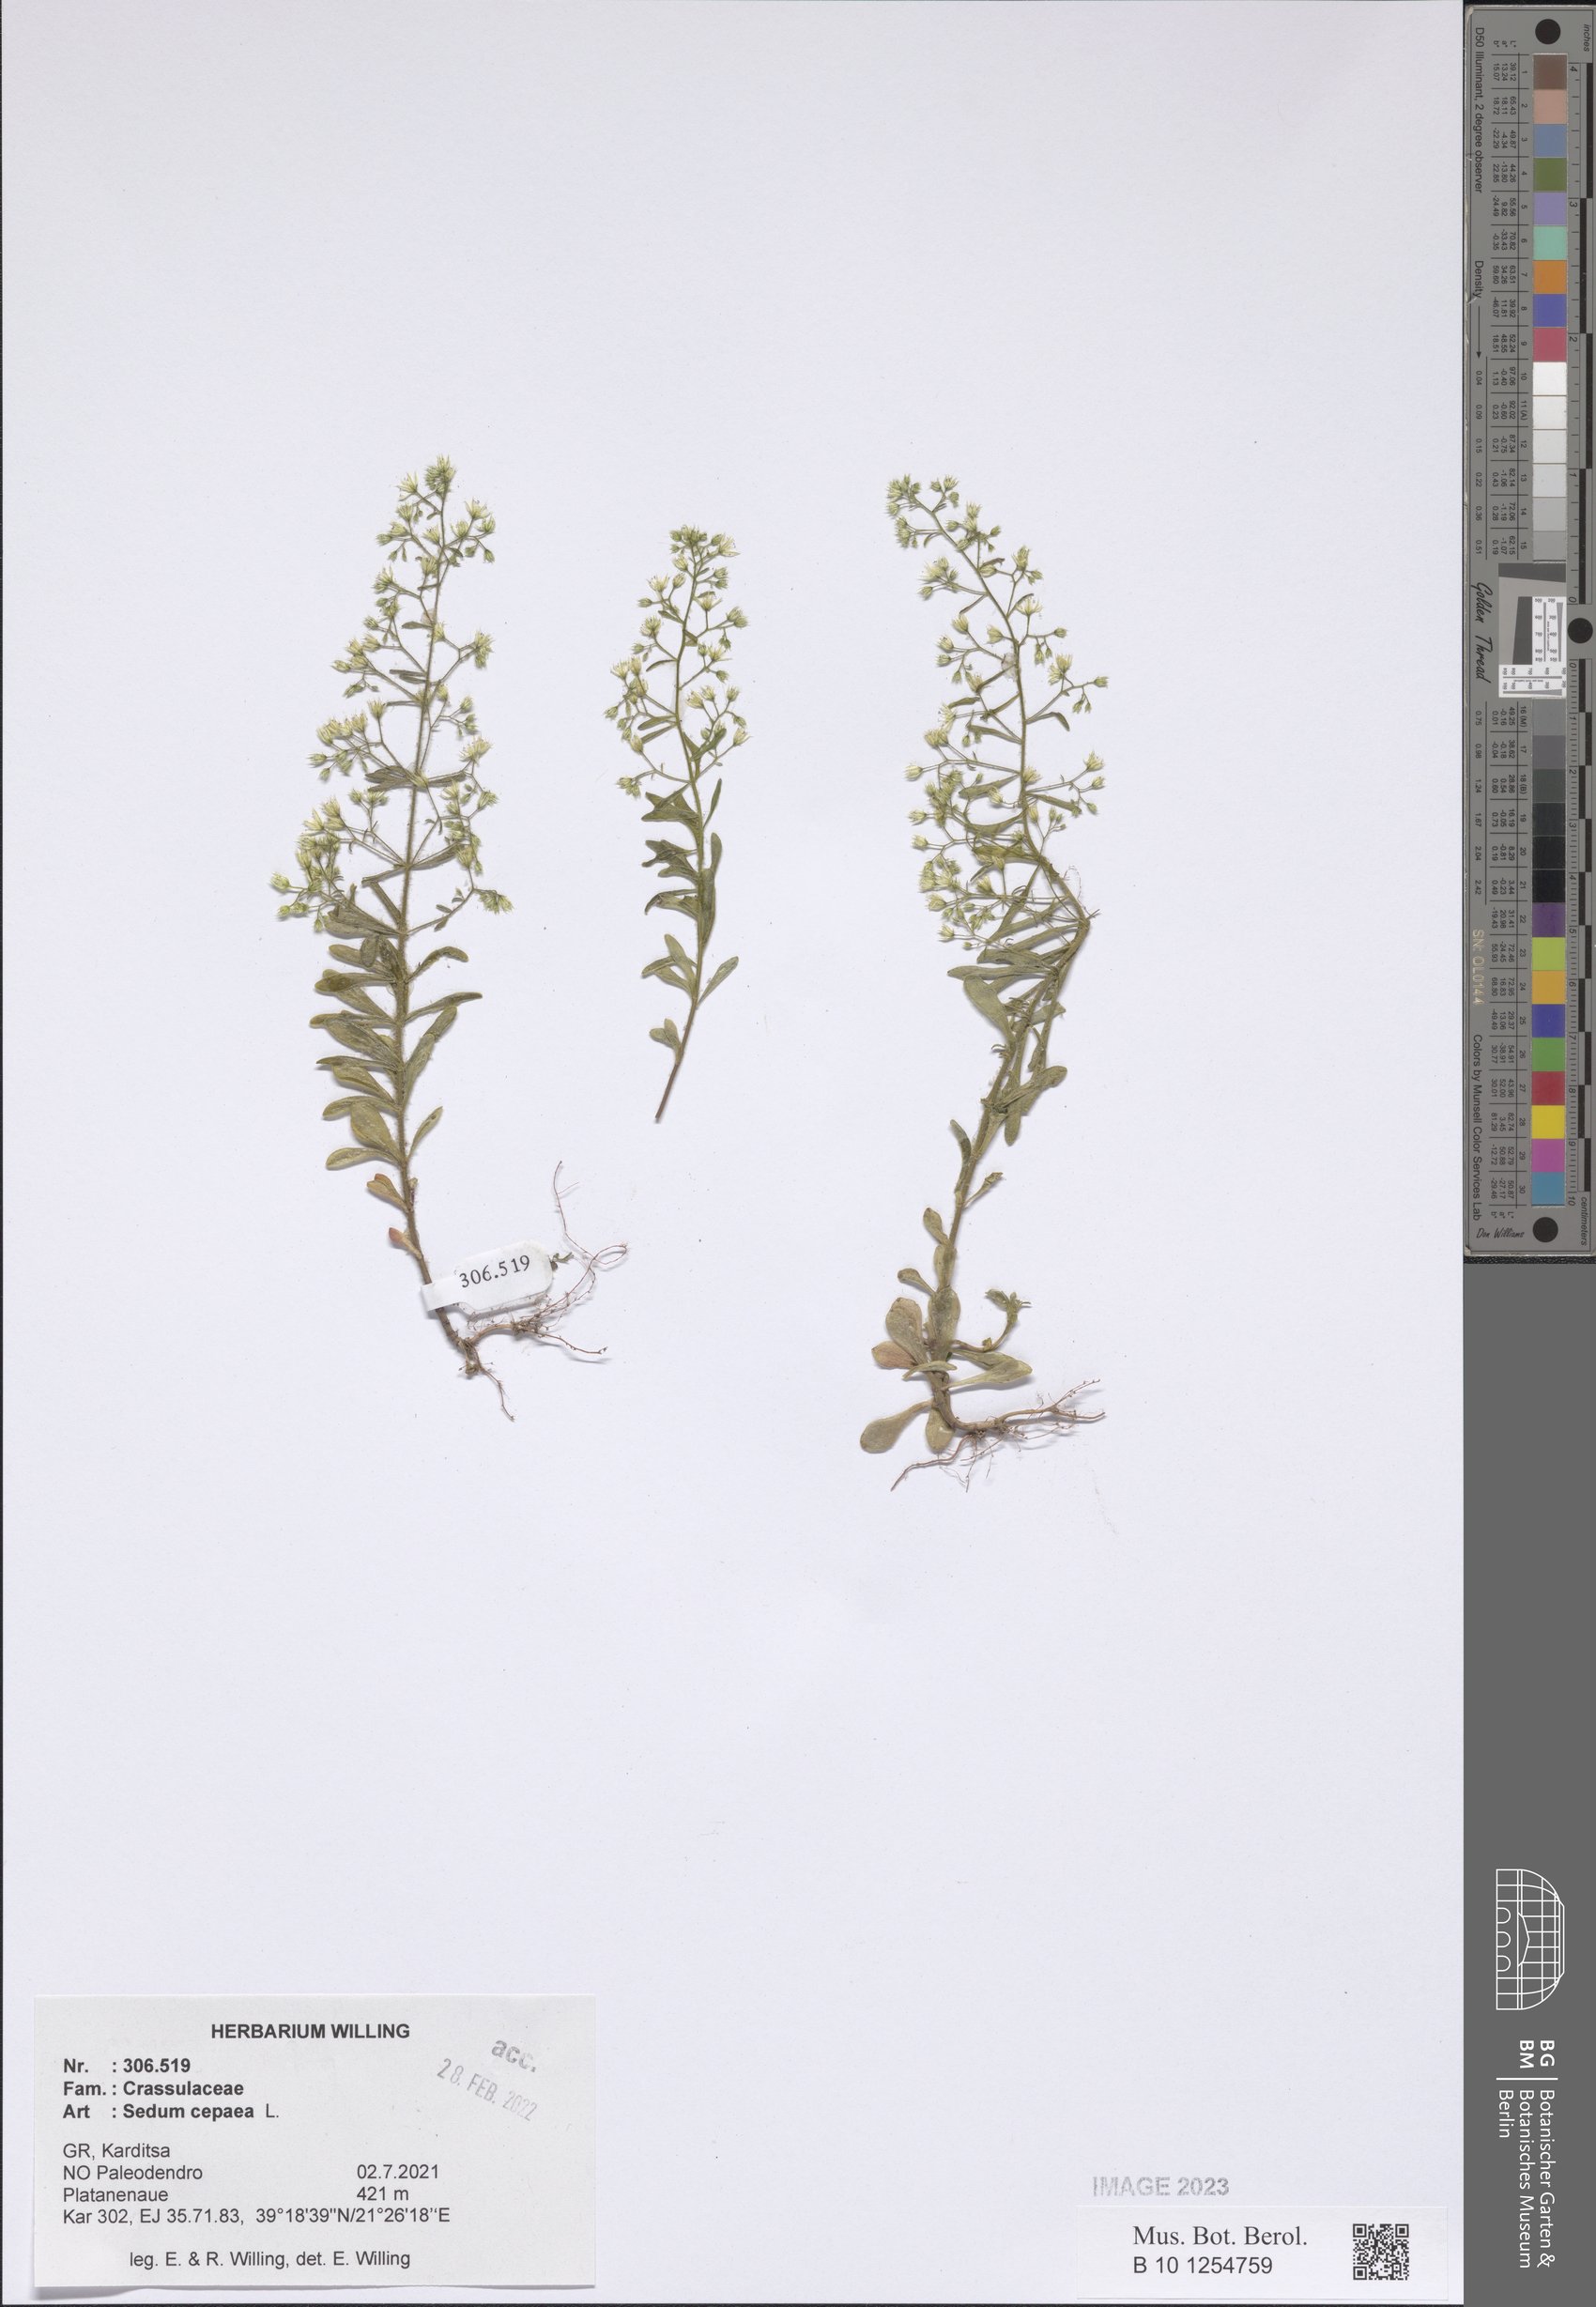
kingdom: Plantae
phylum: Tracheophyta
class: Magnoliopsida
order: Saxifragales
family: Crassulaceae
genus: Sedum
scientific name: Sedum cepaea
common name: Pink stonecrop
